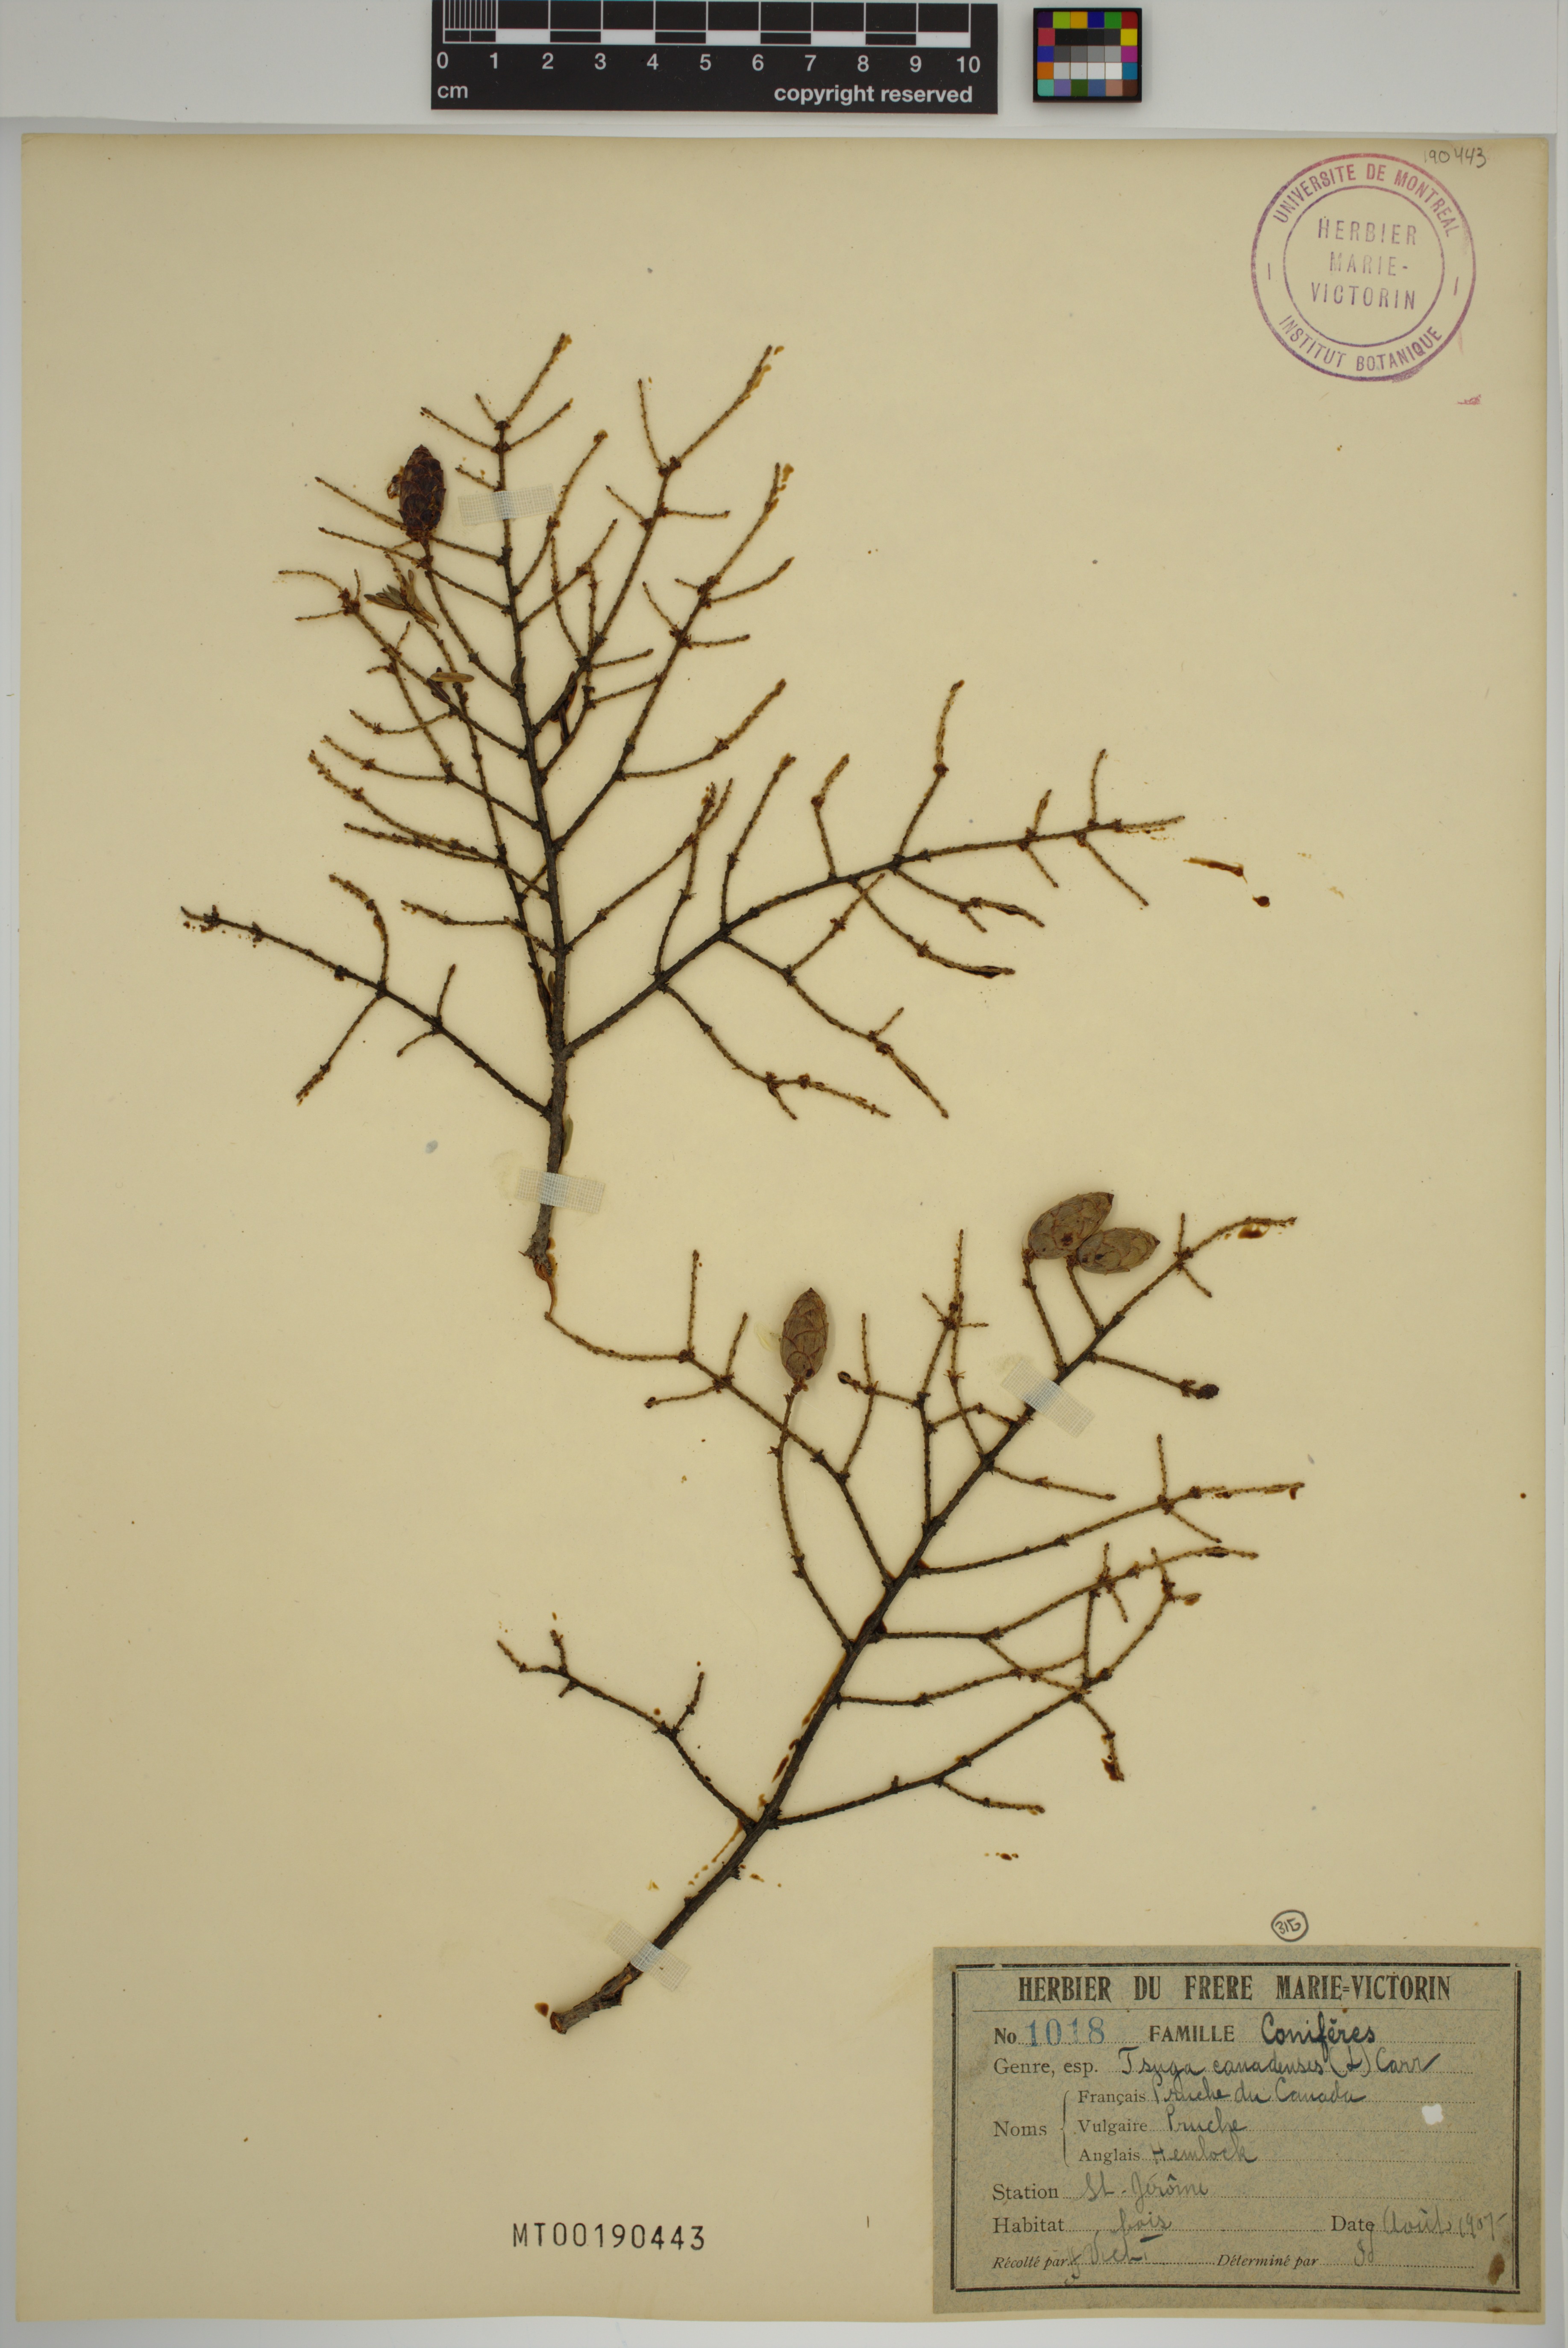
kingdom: Plantae
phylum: Tracheophyta
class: Pinopsida
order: Pinales
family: Pinaceae
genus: Tsuga
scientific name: Tsuga canadensis
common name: Eastern hemlock
